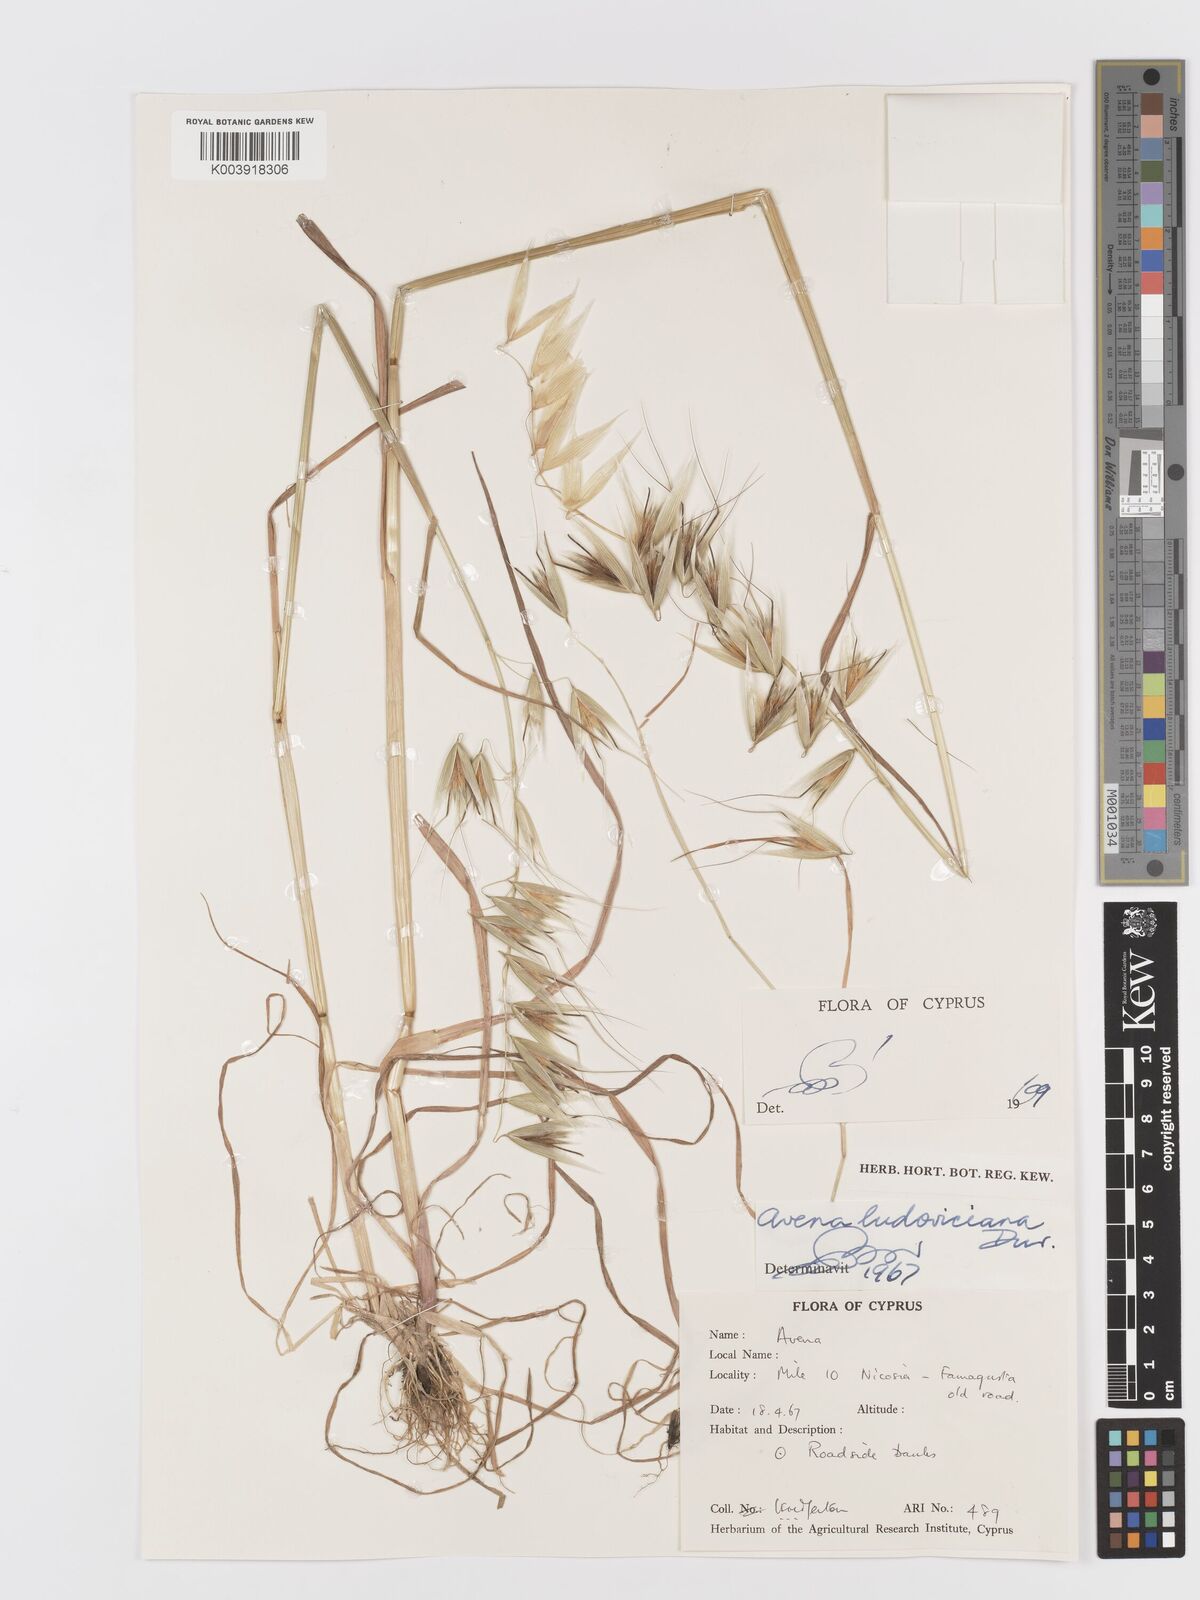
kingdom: Plantae
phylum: Tracheophyta
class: Liliopsida
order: Poales
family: Poaceae
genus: Avena
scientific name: Avena sterilis
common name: Animated oat
